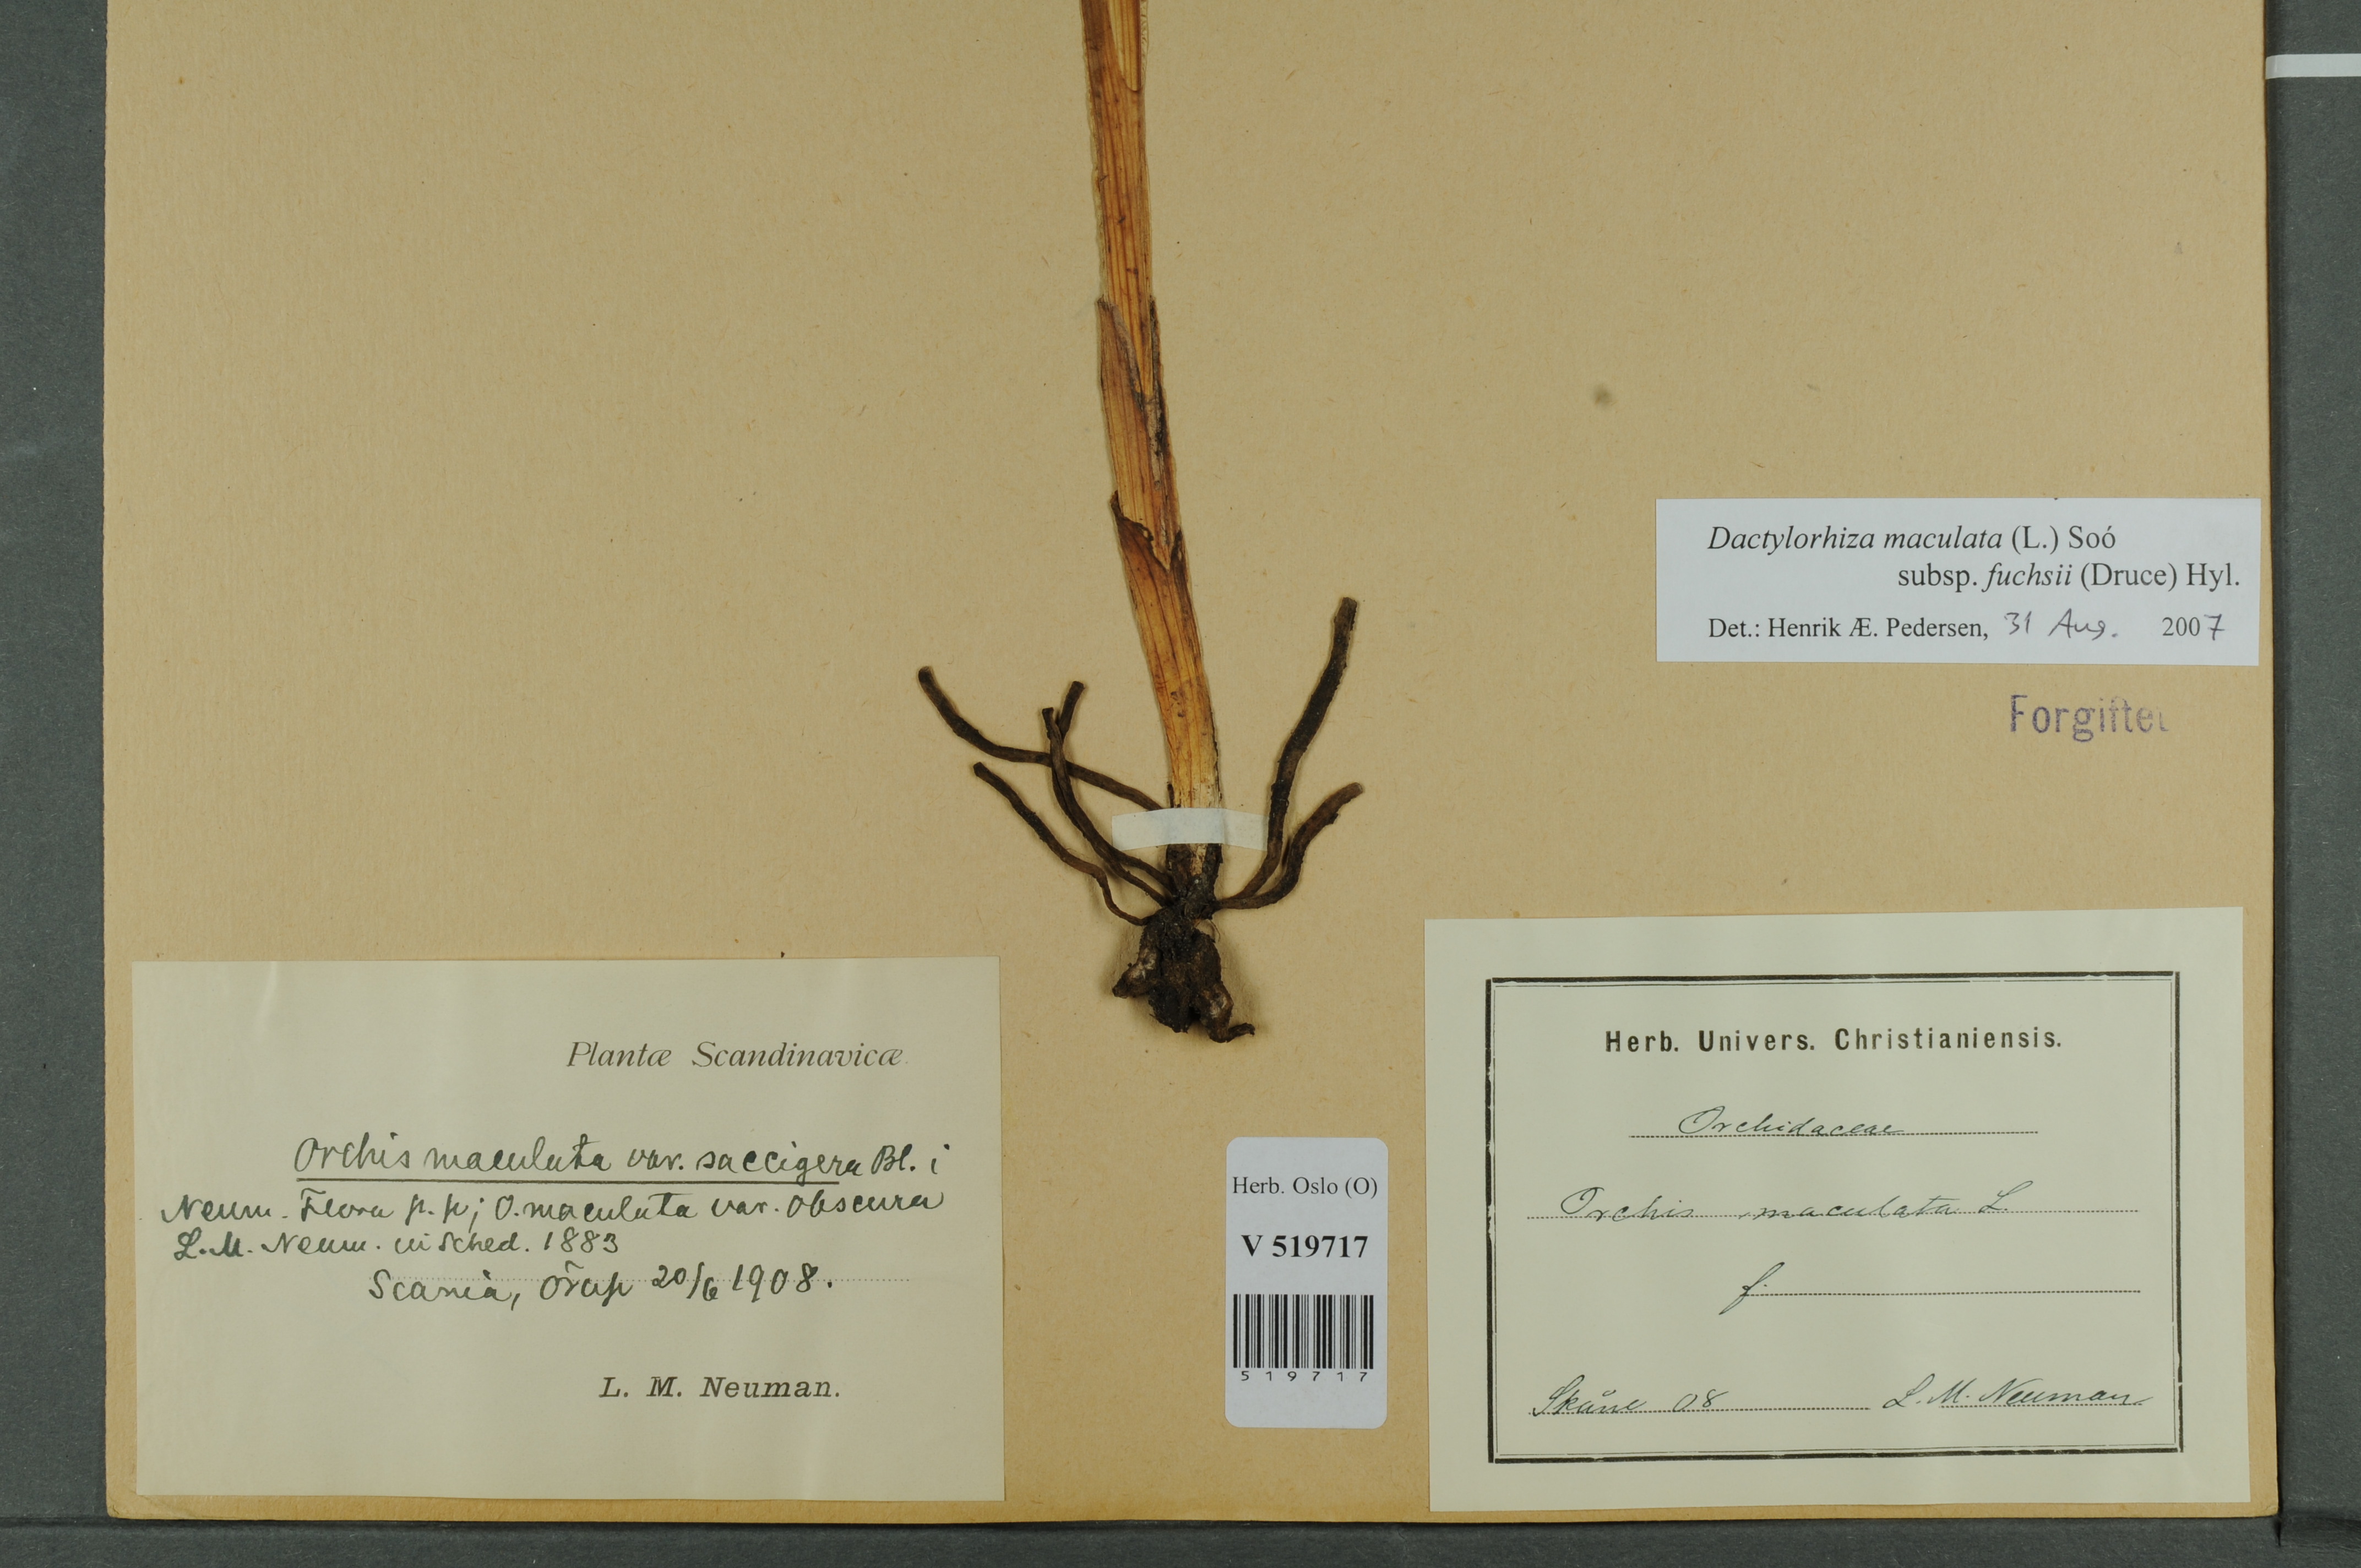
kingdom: Plantae
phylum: Tracheophyta
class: Liliopsida
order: Asparagales
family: Orchidaceae
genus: Dactylorhiza
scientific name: Dactylorhiza maculata
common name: Heath spotted-orchid
